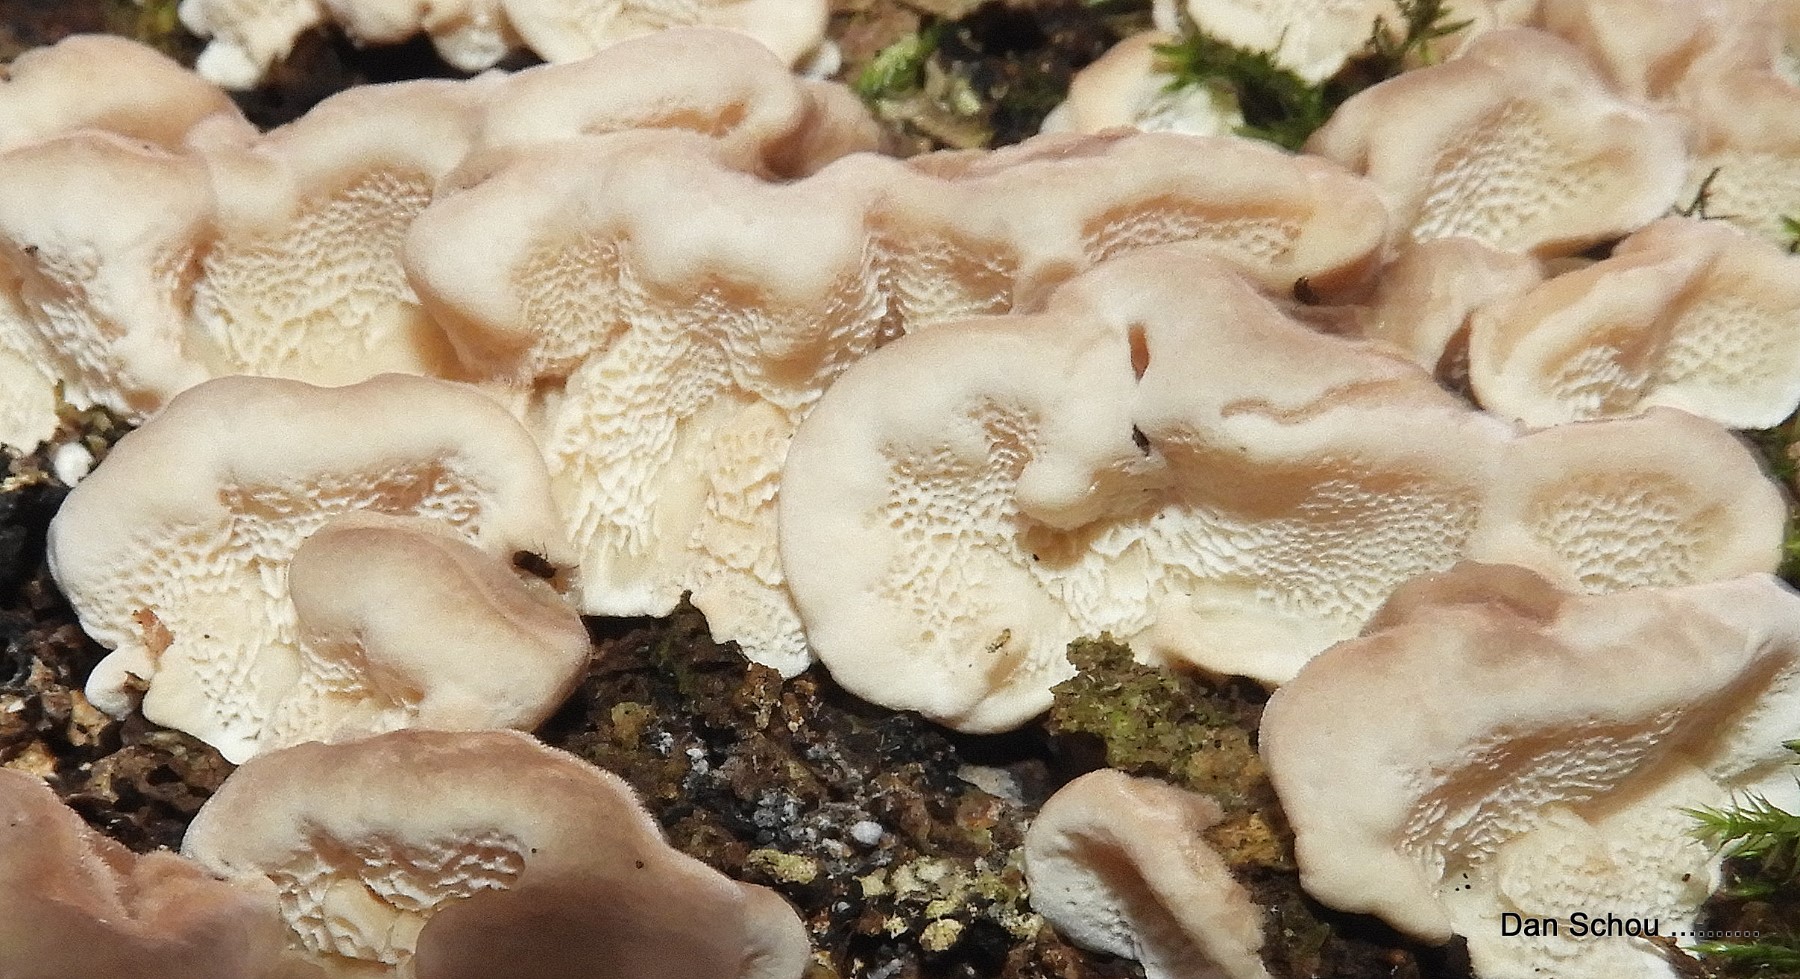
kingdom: Fungi
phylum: Basidiomycota
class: Agaricomycetes
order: Polyporales
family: Polyporaceae
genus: Trametes
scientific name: Trametes
